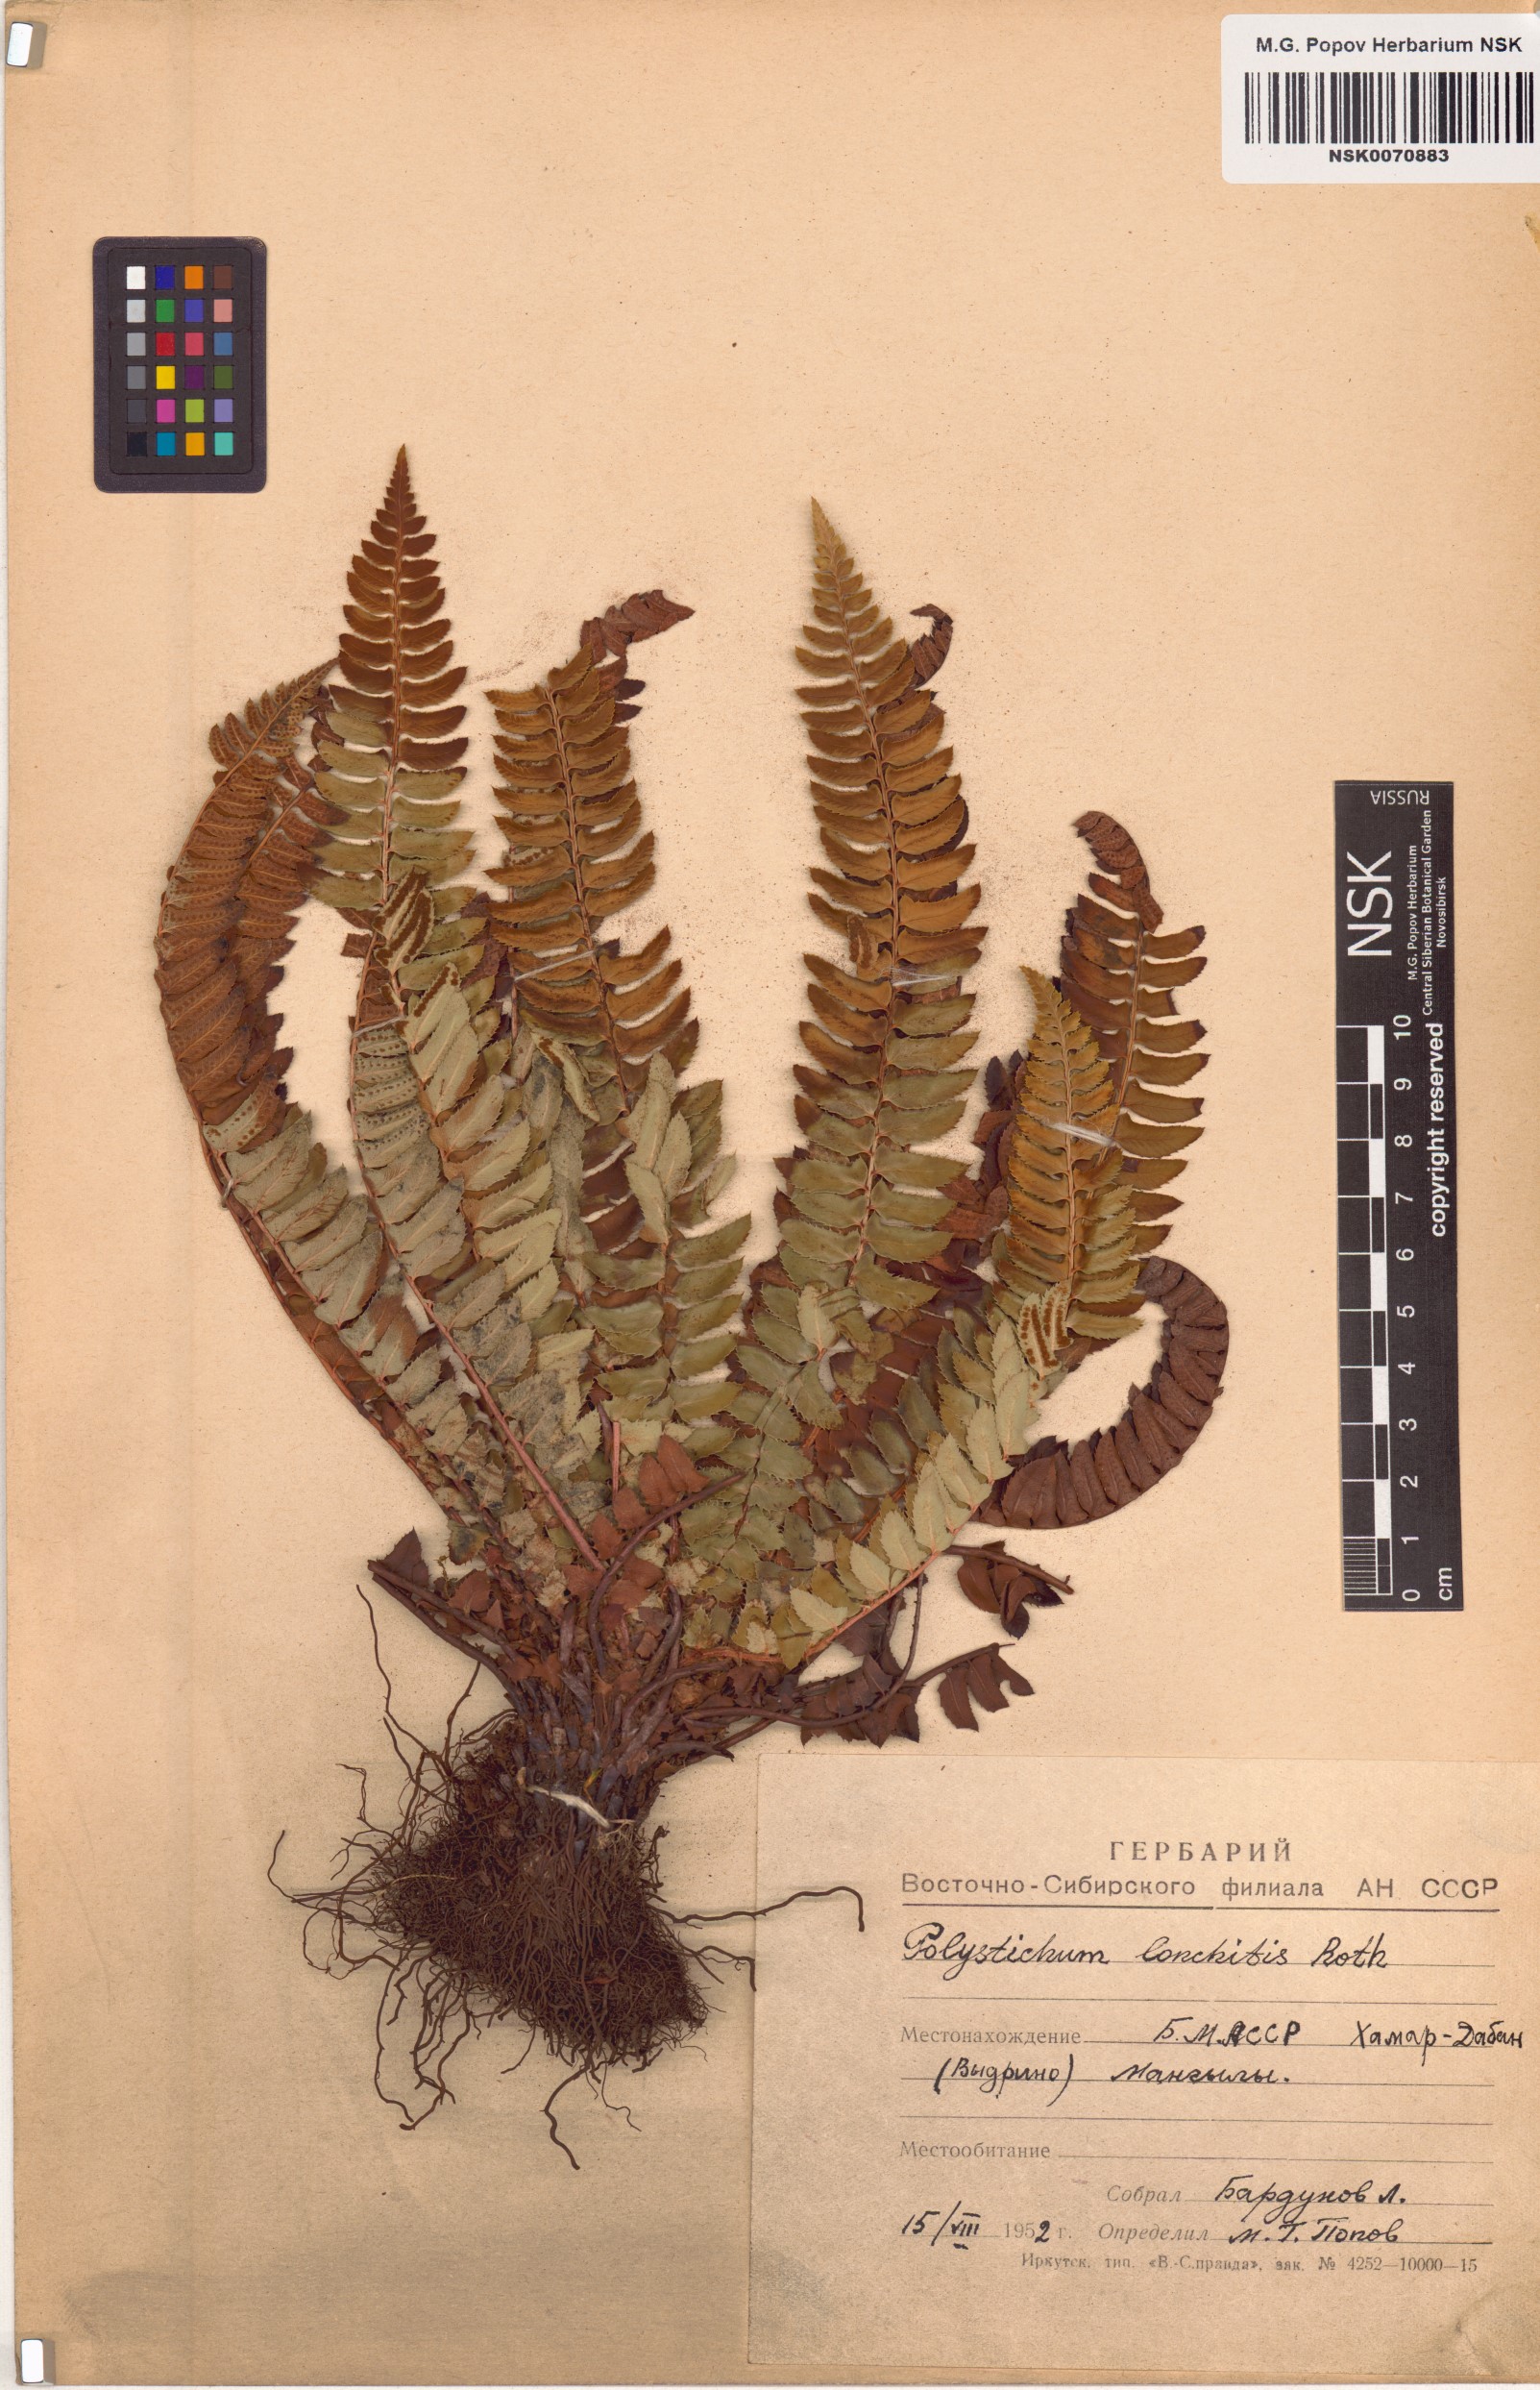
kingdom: Plantae
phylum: Tracheophyta
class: Polypodiopsida
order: Polypodiales
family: Dryopteridaceae
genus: Polystichum
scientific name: Polystichum lonchitis
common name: Holly fern
